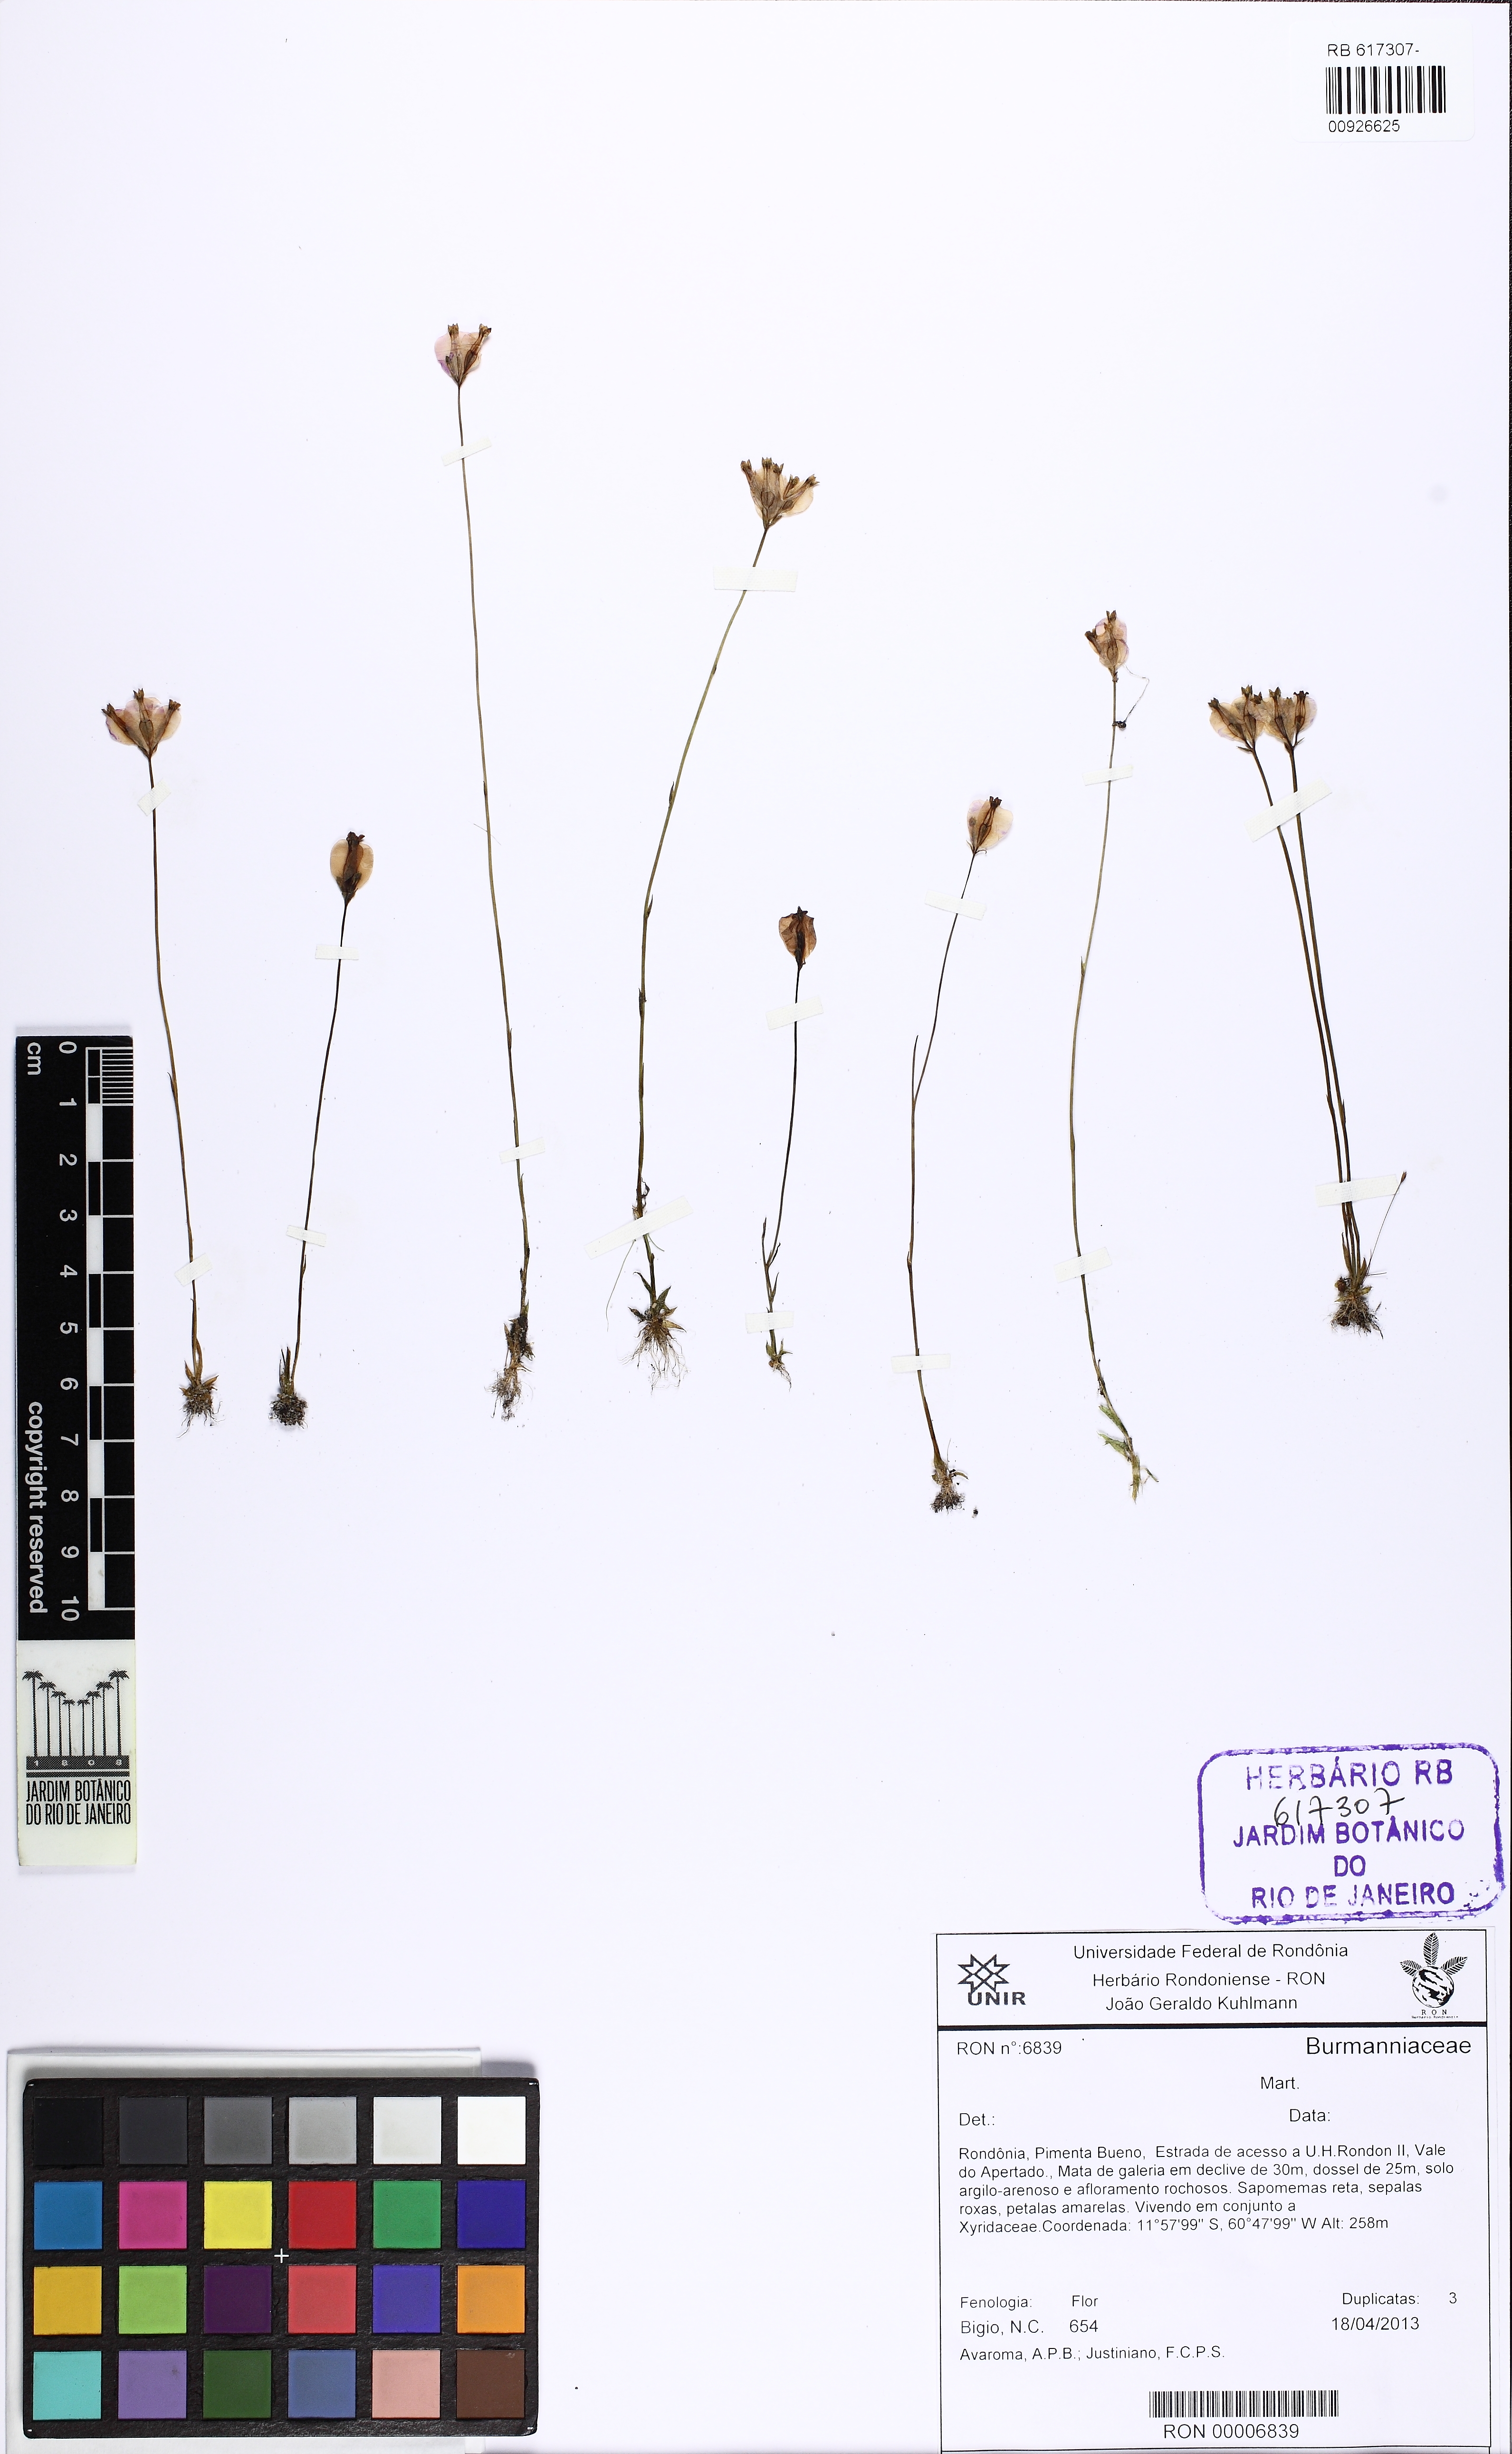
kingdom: Plantae
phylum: Tracheophyta
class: Liliopsida
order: Dioscoreales
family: Burmanniaceae
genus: Burmannia
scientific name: Burmannia bicolor
